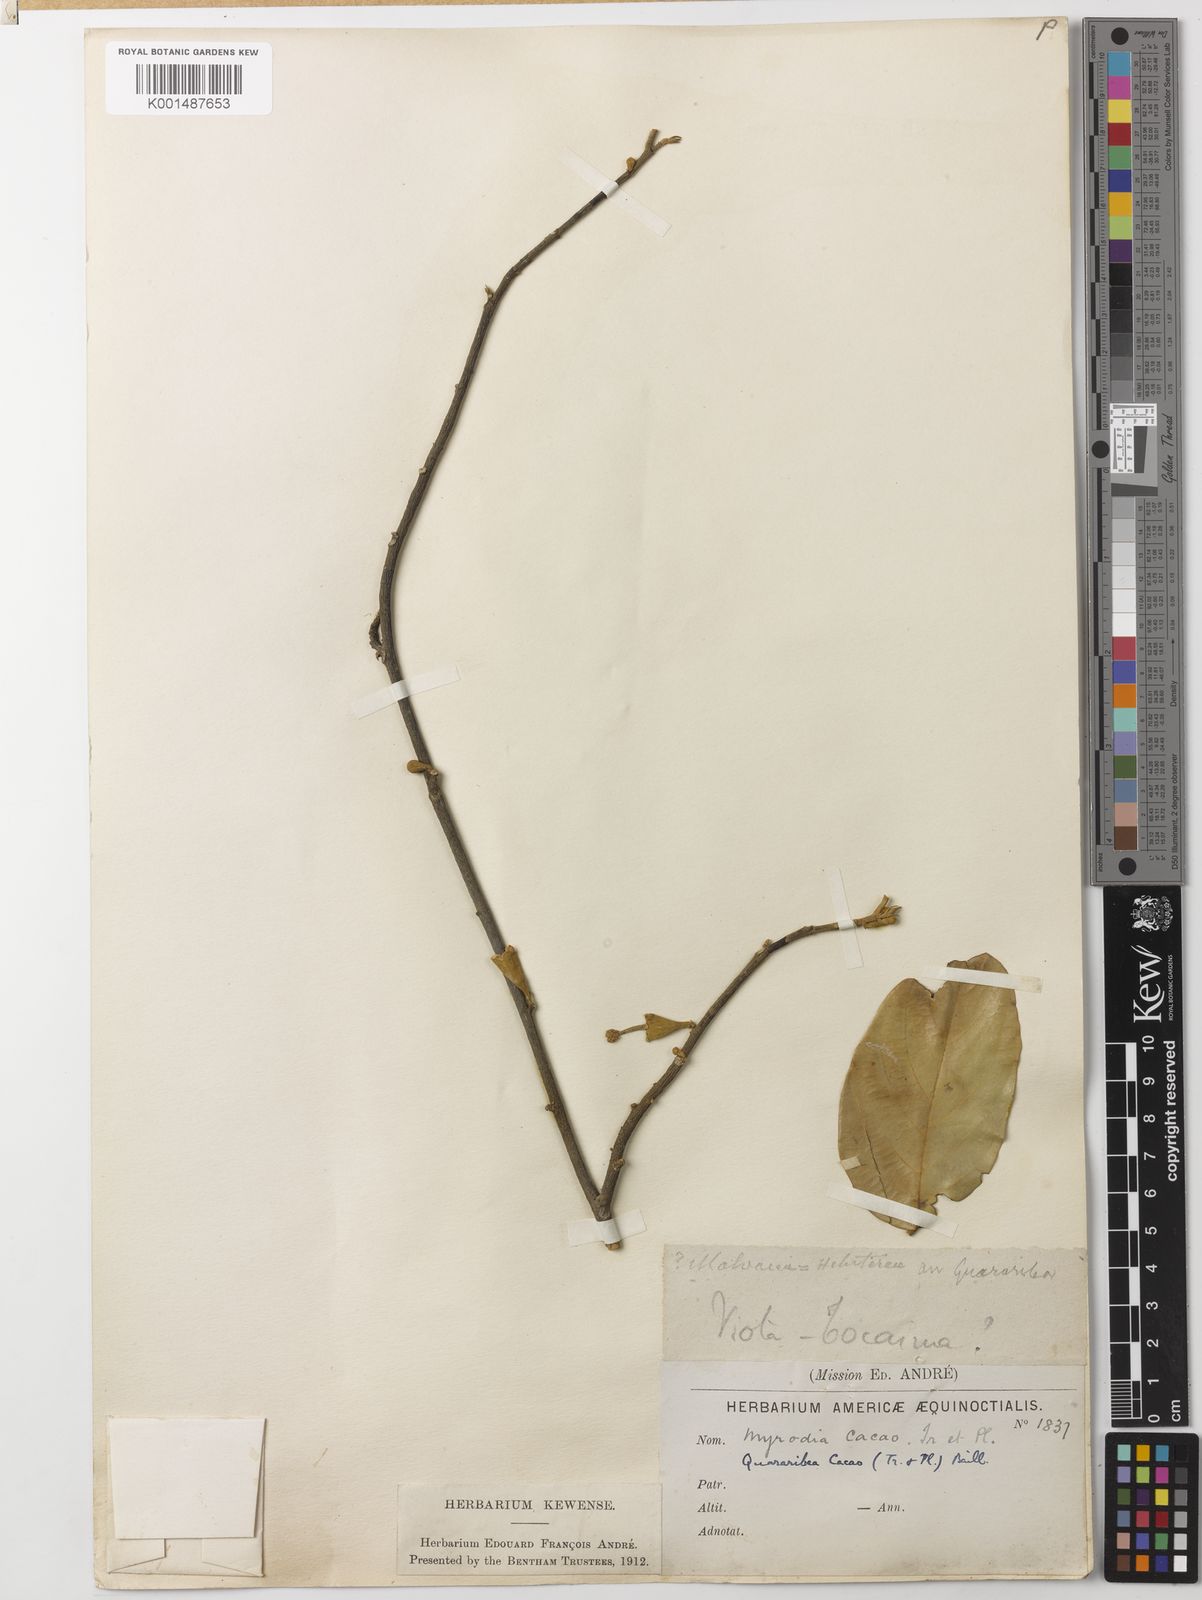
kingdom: Plantae
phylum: Tracheophyta
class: Magnoliopsida
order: Malvales
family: Malvaceae
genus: Quararibea
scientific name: Quararibea cacao
